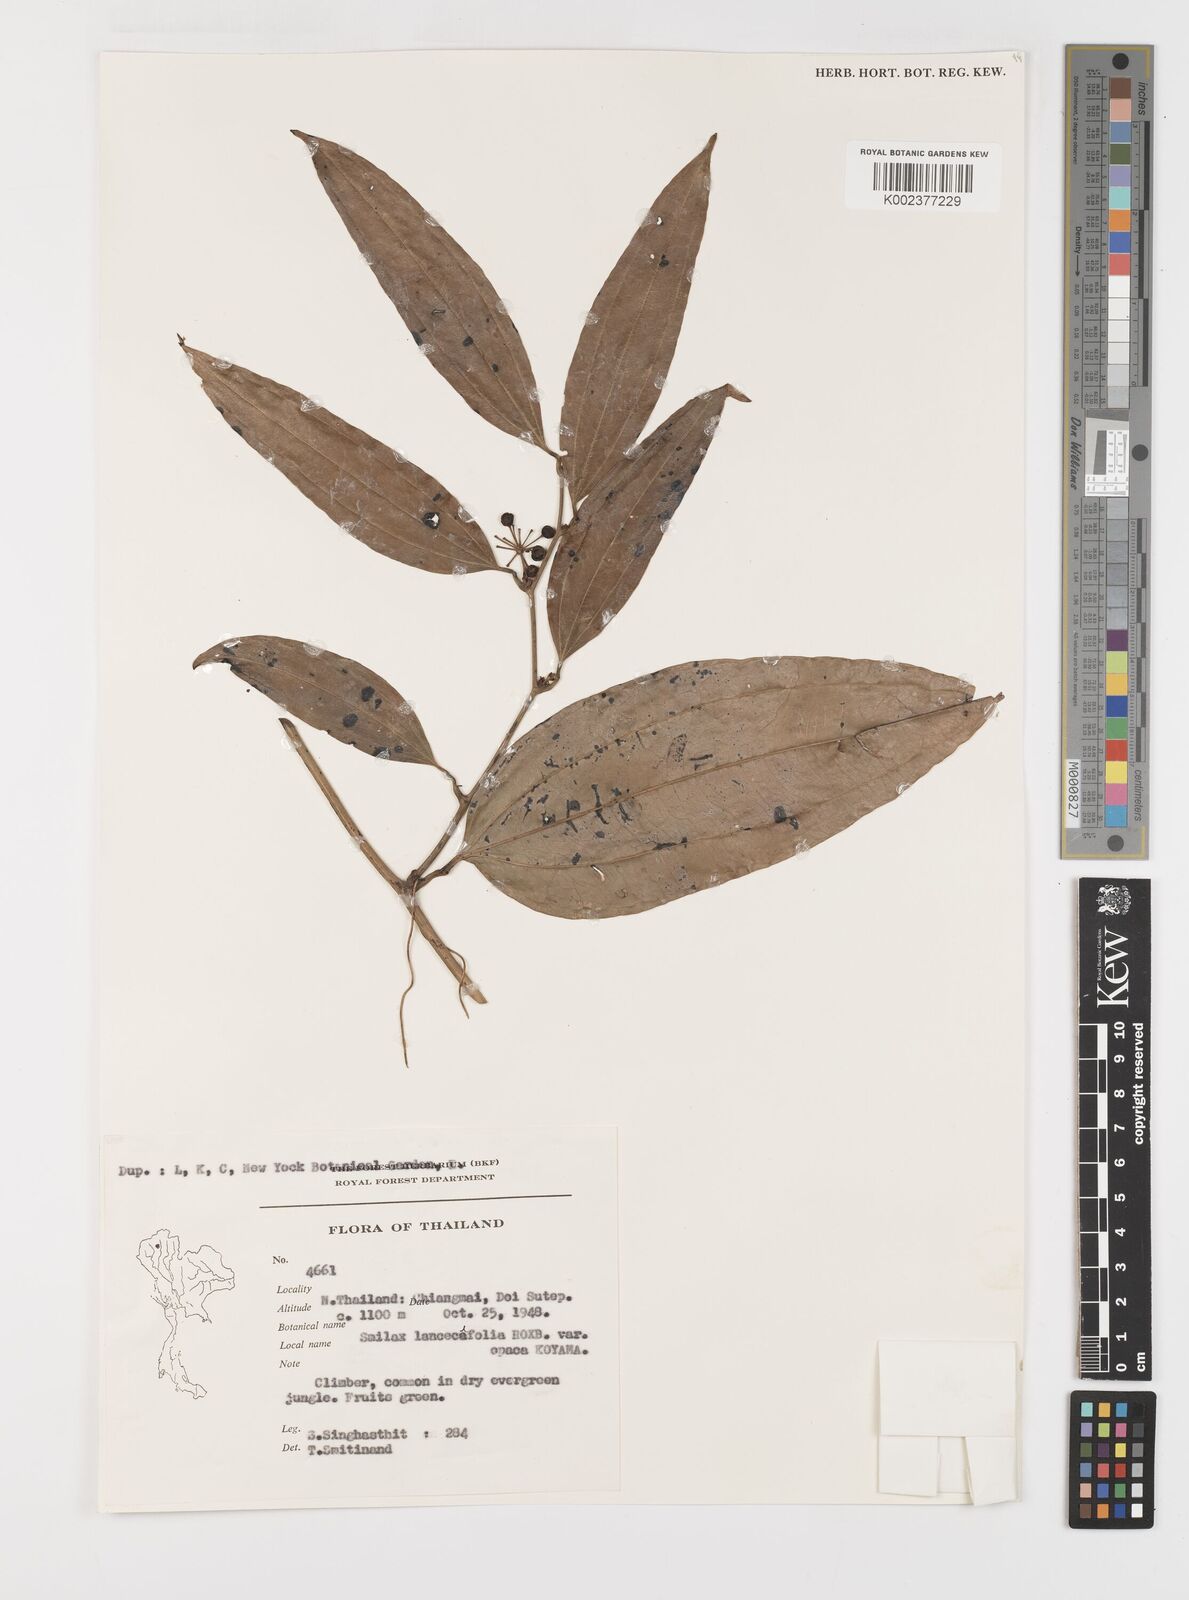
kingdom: Plantae
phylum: Tracheophyta
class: Liliopsida
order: Liliales
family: Smilacaceae
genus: Smilax
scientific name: Smilax lanceifolia
